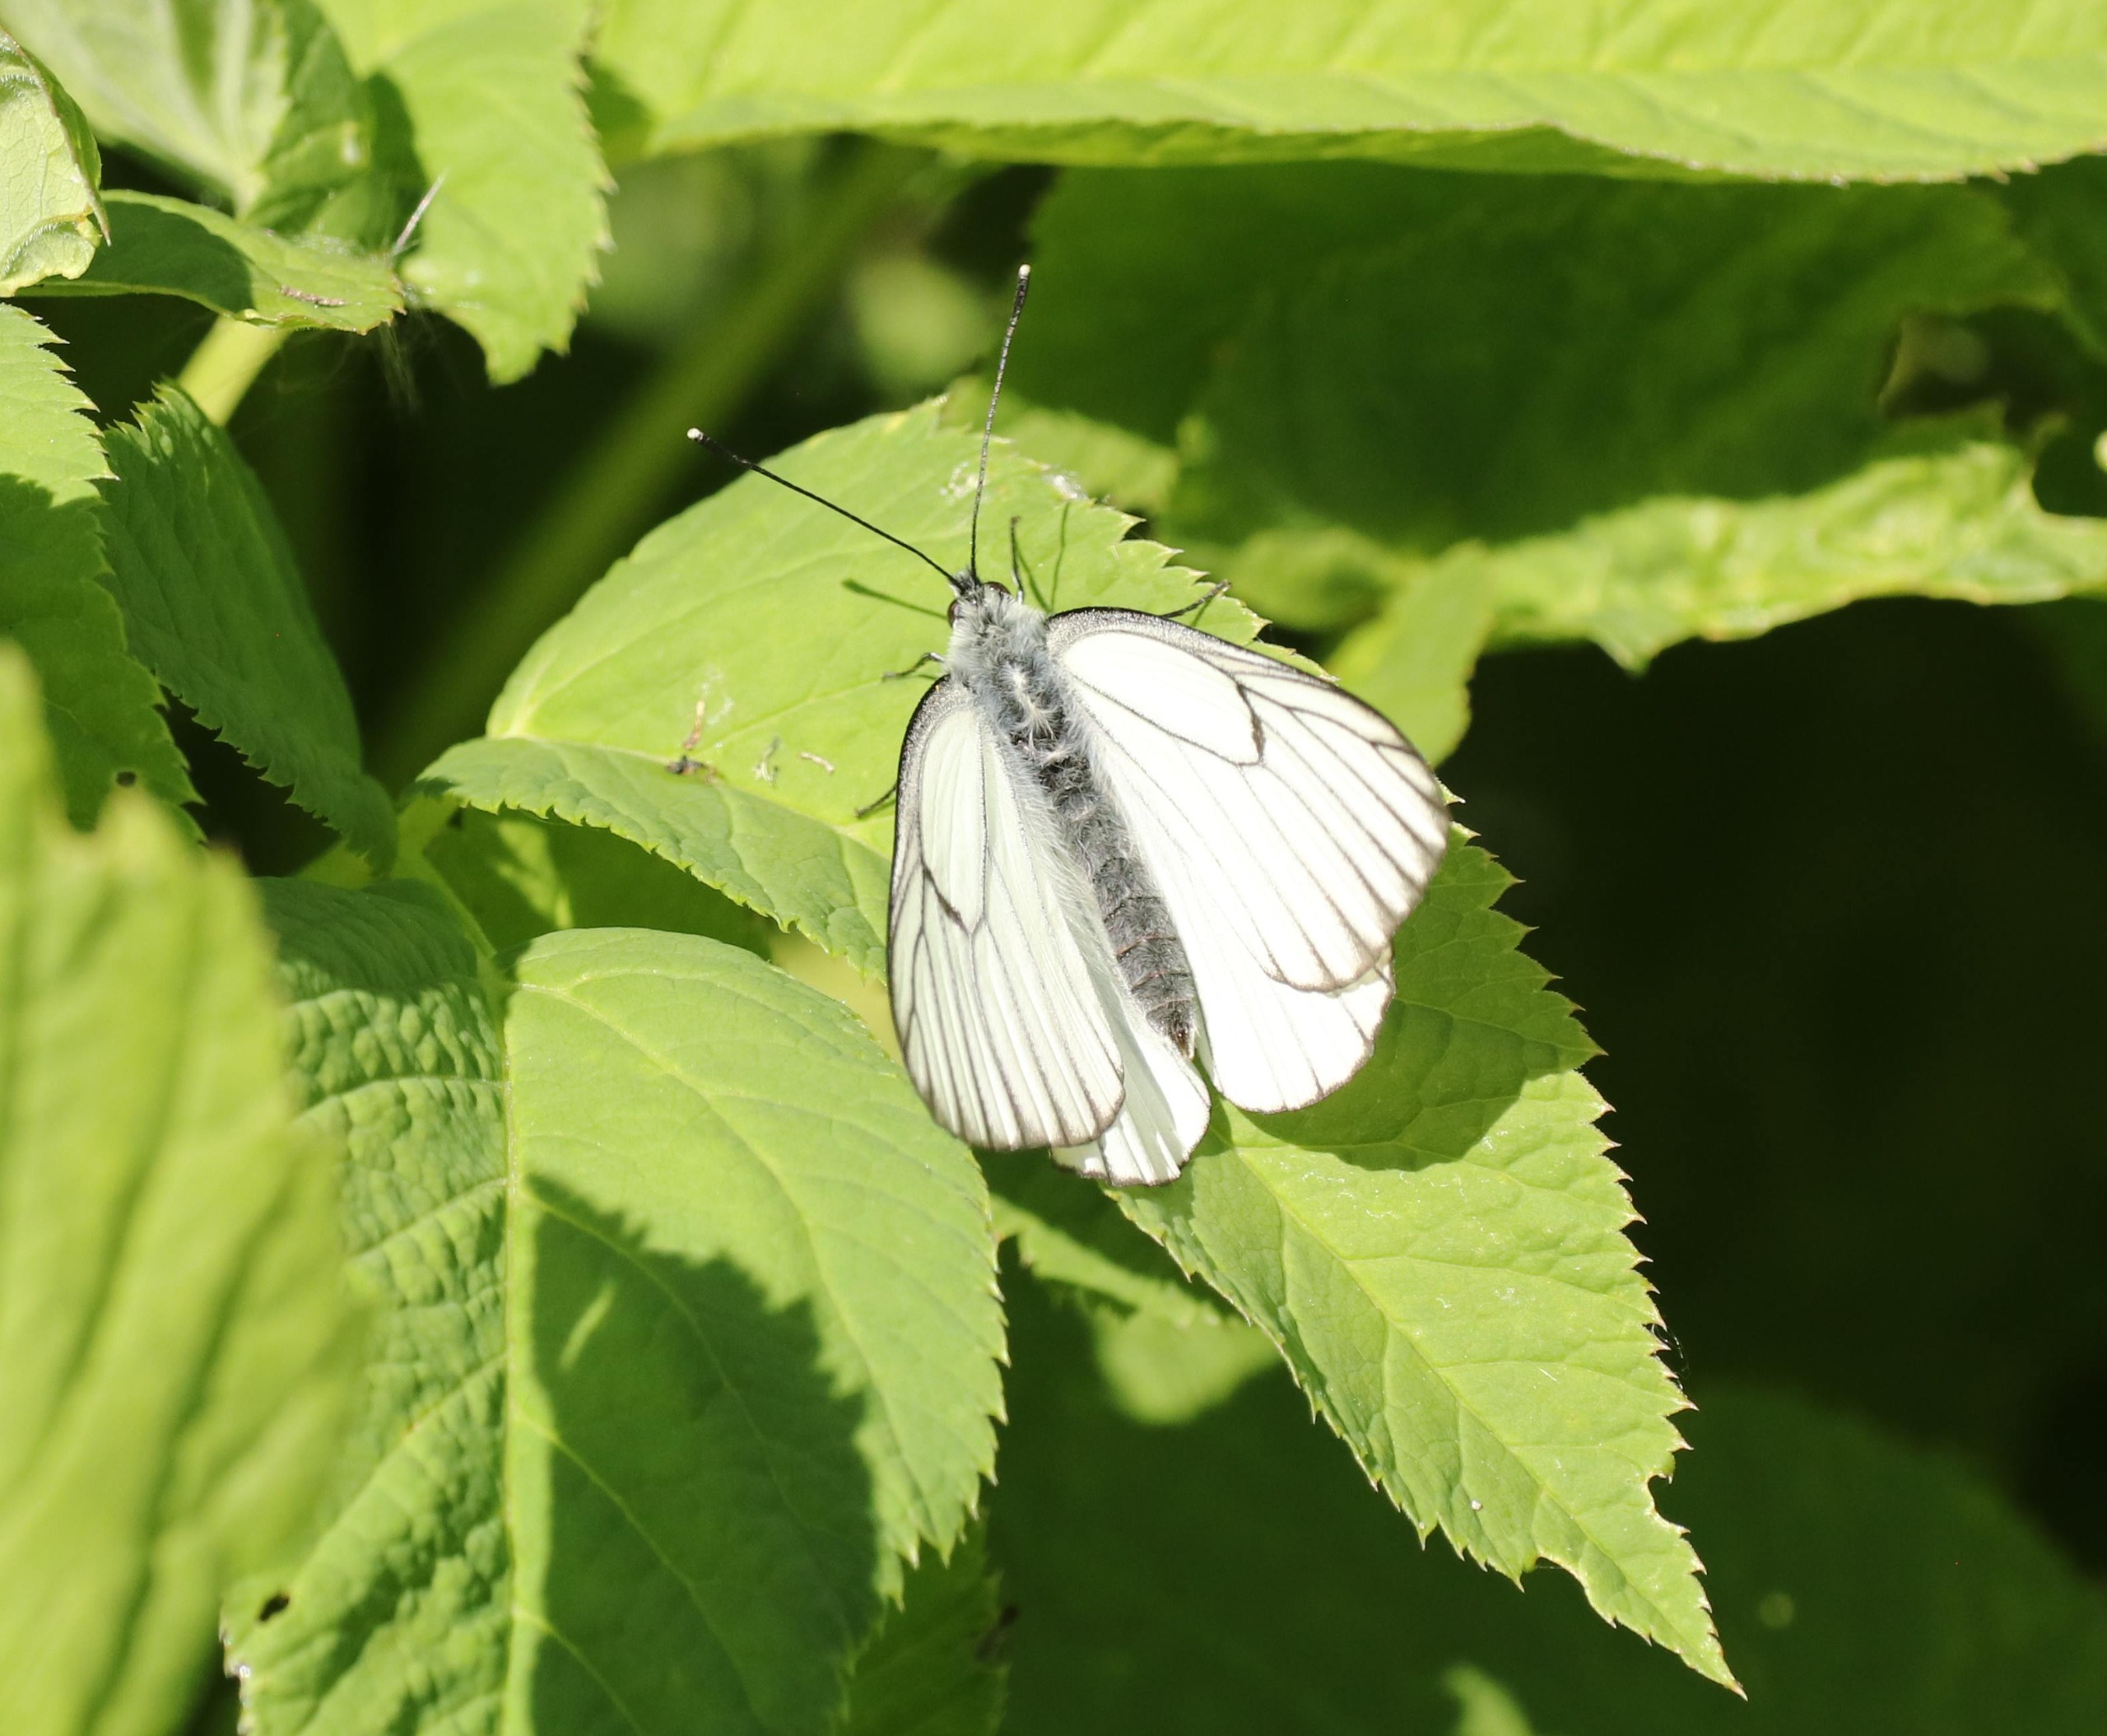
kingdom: Animalia
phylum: Arthropoda
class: Insecta
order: Lepidoptera
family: Pieridae
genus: Aporia
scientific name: Aporia crataegi
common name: Sortåret hvidvinge
